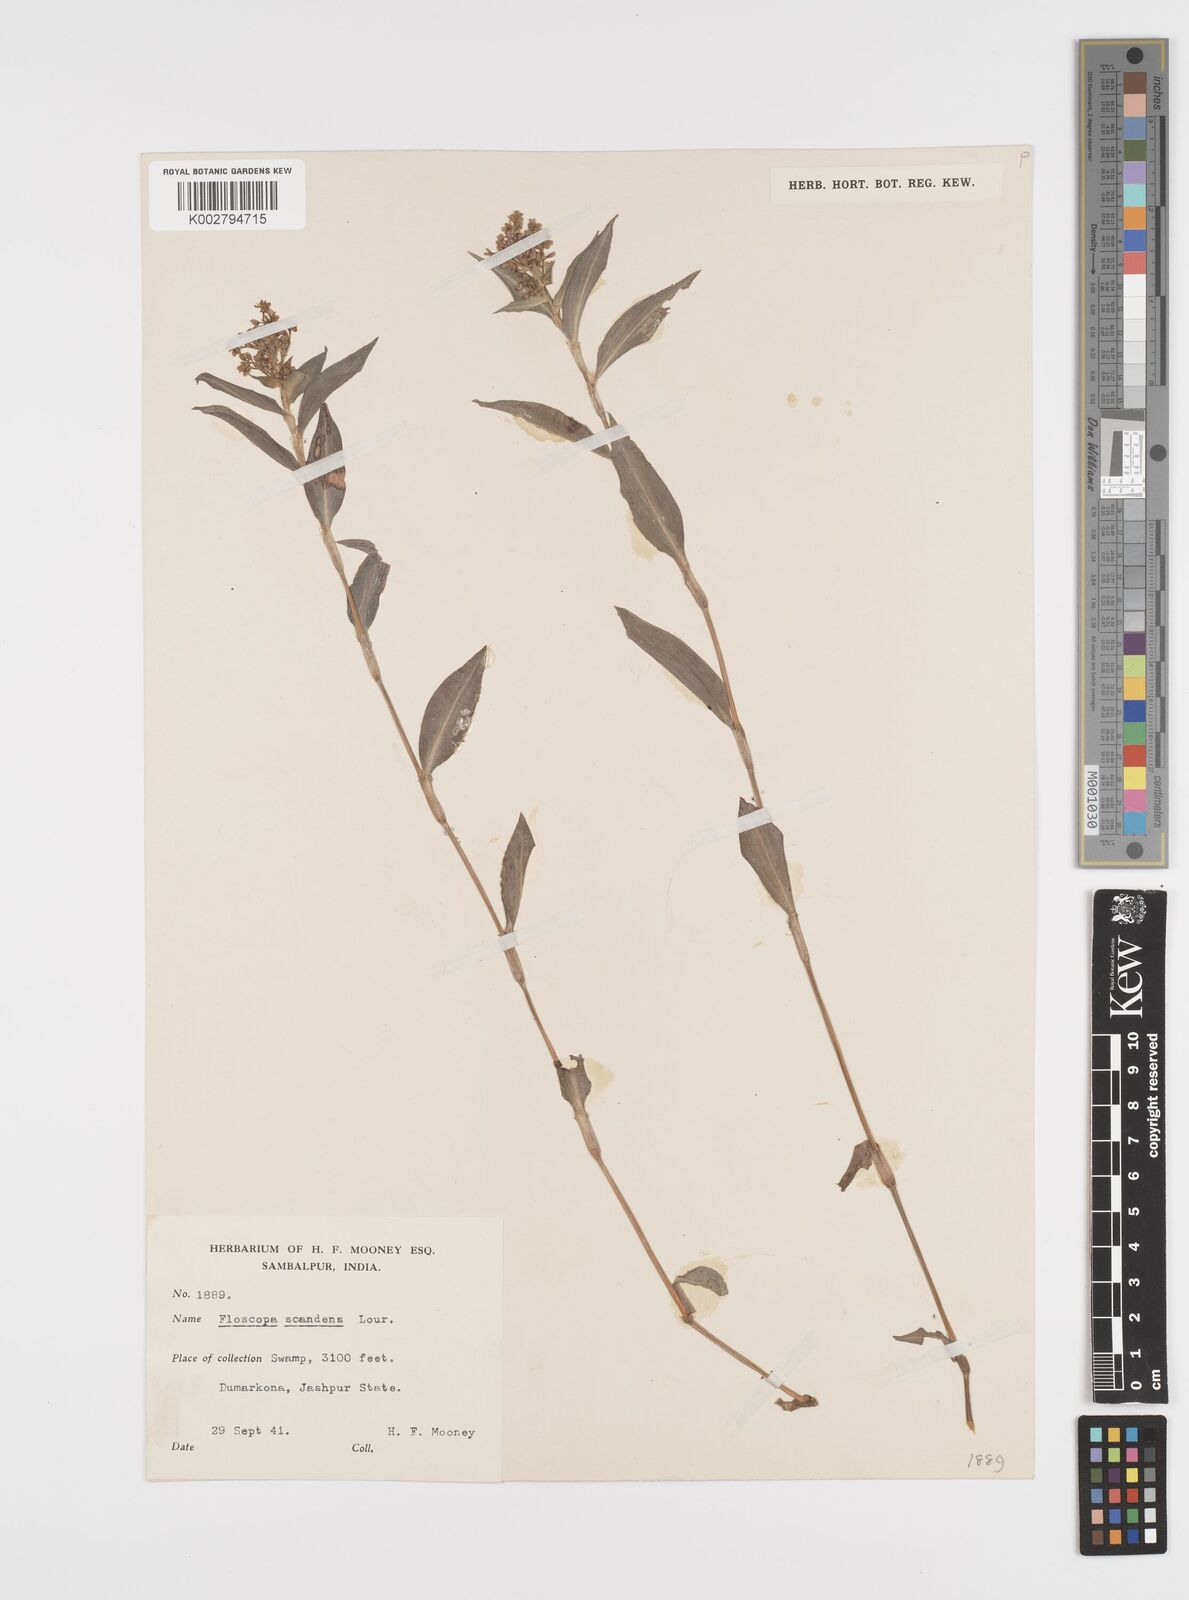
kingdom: Plantae
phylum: Tracheophyta
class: Liliopsida
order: Commelinales
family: Commelinaceae
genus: Floscopa
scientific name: Floscopa scandens
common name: Climbing flower cup
